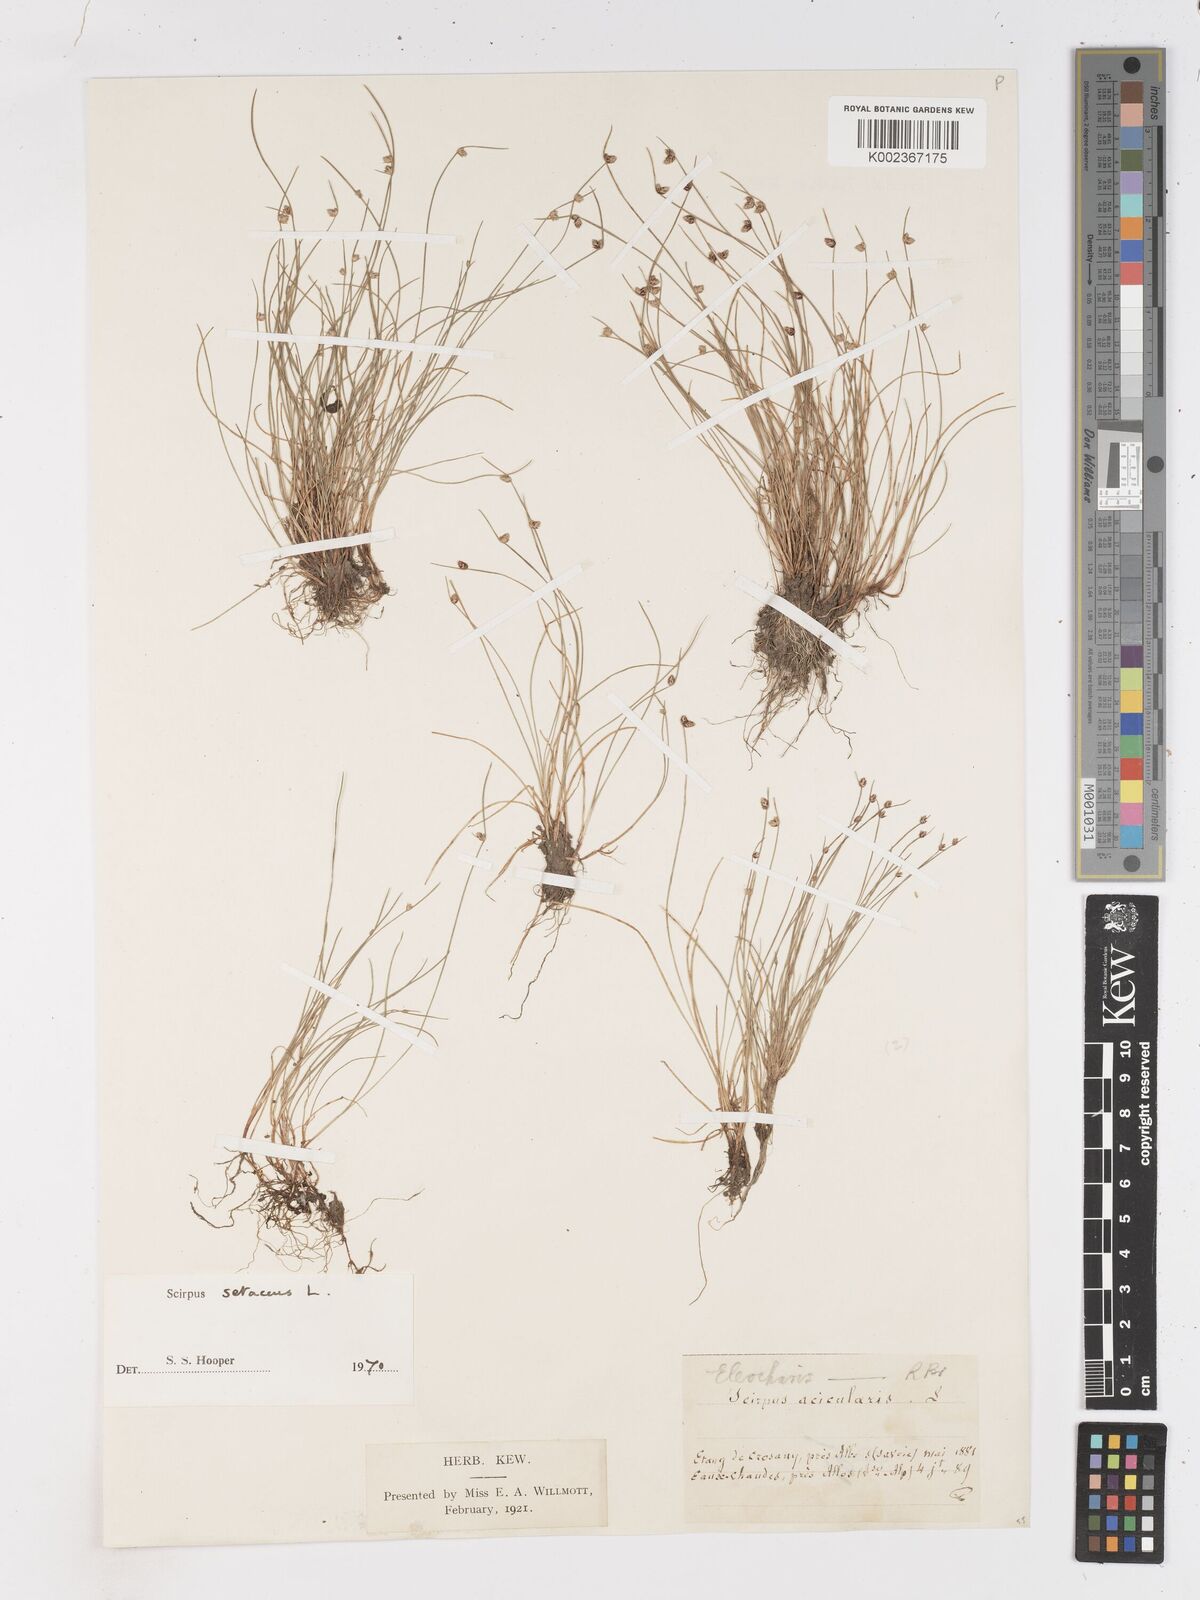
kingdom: Plantae
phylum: Tracheophyta
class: Liliopsida
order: Poales
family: Cyperaceae
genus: Isolepis
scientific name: Isolepis setacea
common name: Bristle club-rush
